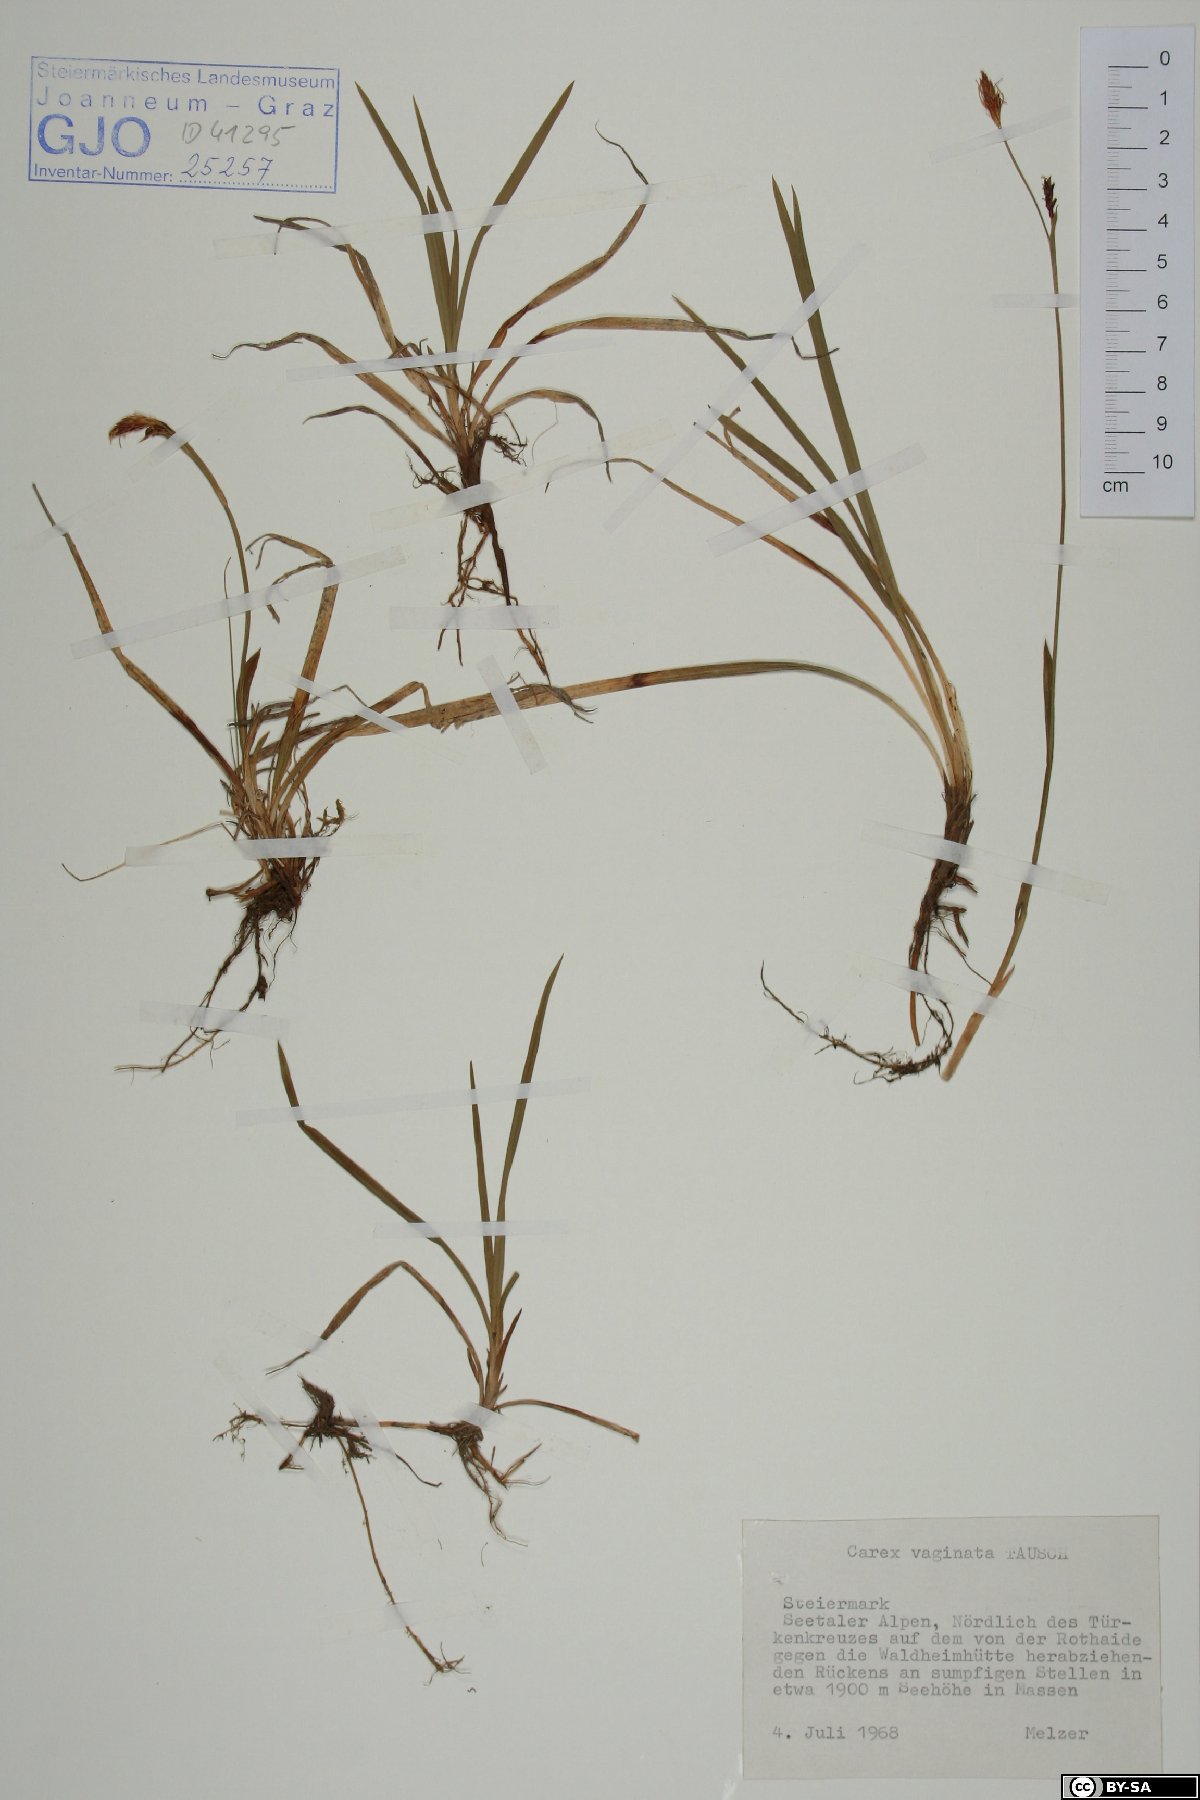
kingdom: Plantae
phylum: Tracheophyta
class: Liliopsida
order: Poales
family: Cyperaceae
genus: Carex
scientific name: Carex vaginata
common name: Sheathed sedge
